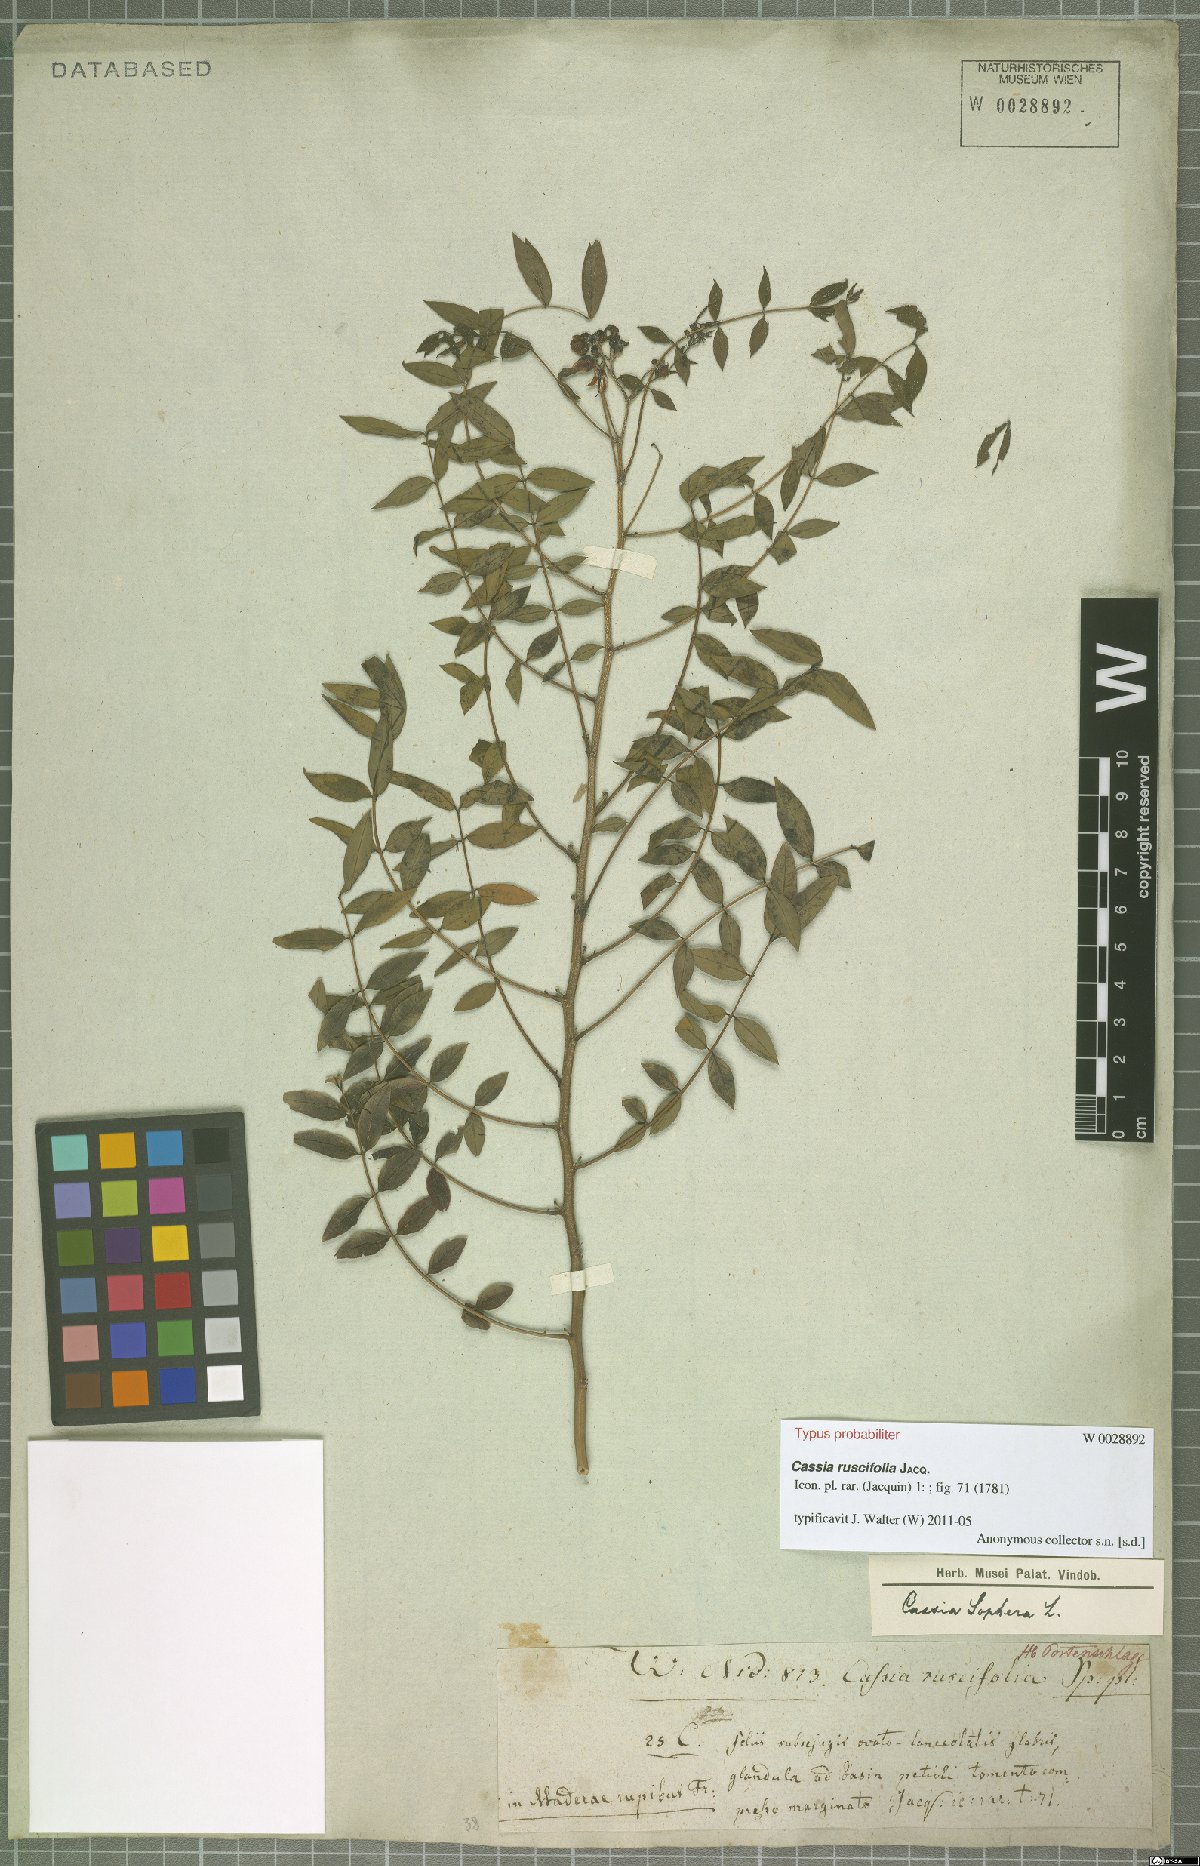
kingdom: Plantae
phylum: Tracheophyta
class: Magnoliopsida
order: Fabales
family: Fabaceae
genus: Senna
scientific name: Senna sophera
